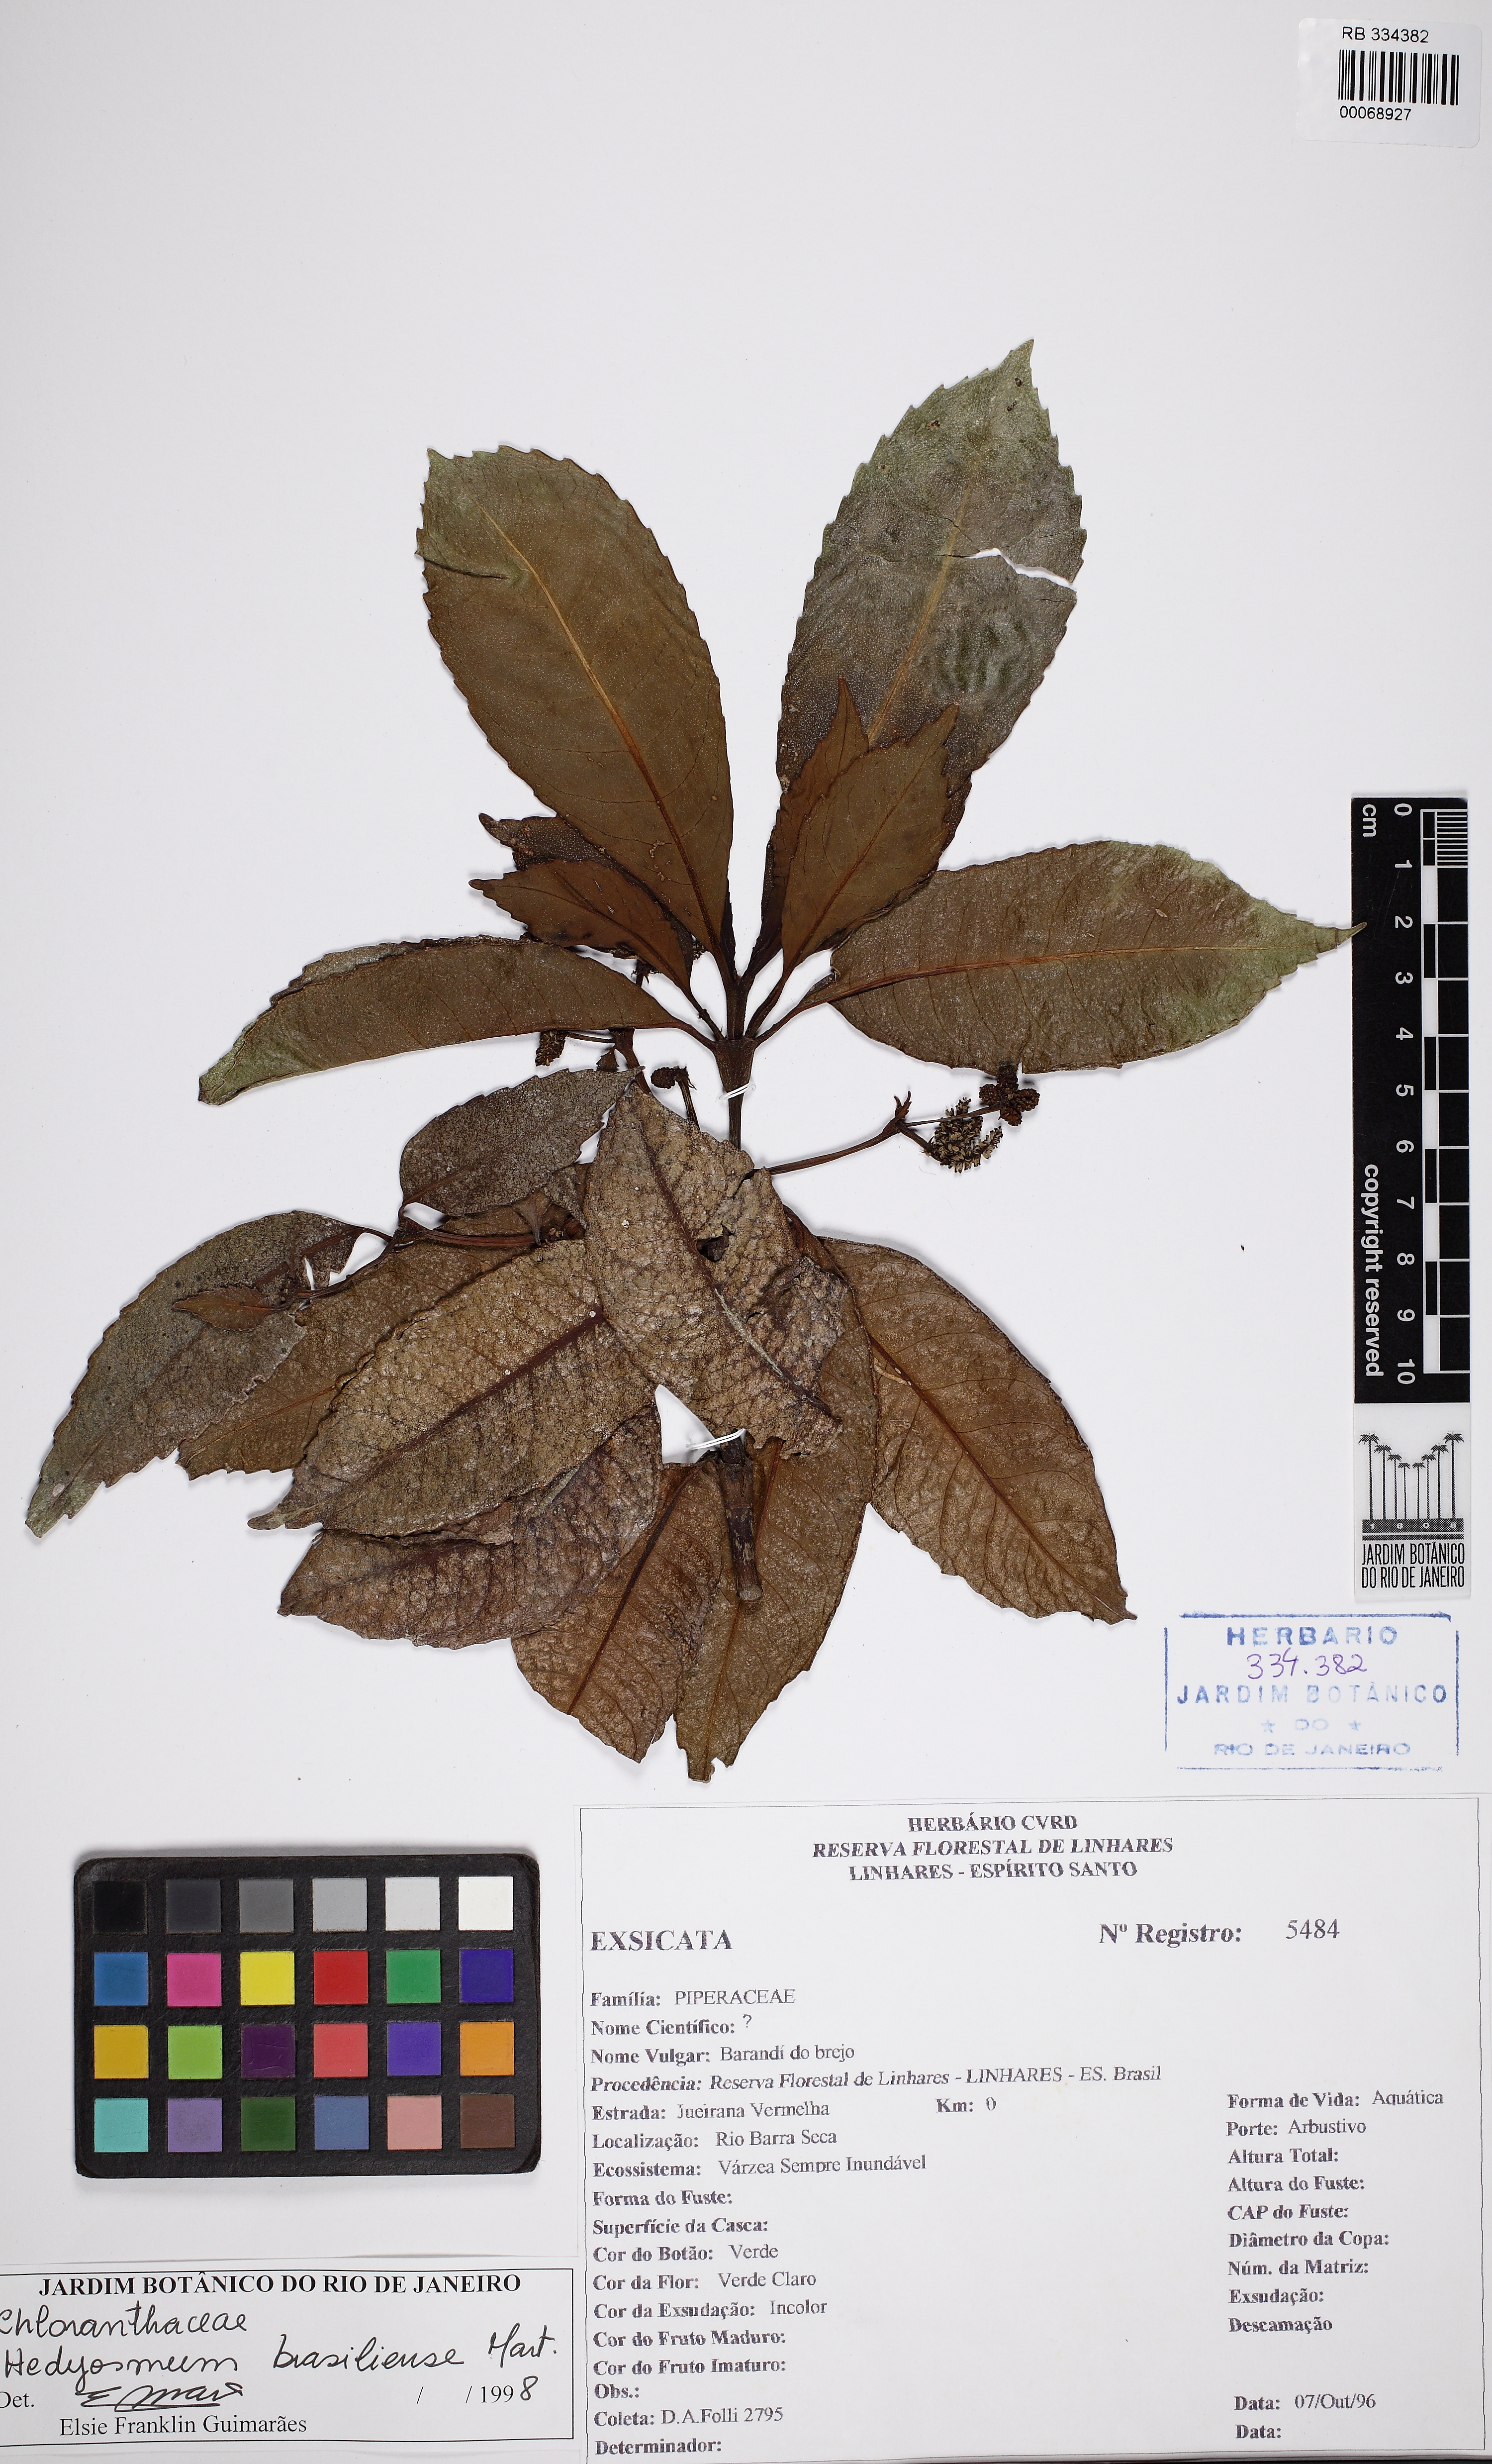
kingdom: Plantae
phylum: Tracheophyta
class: Magnoliopsida
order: Chloranthales
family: Chloranthaceae
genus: Hedyosmum
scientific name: Hedyosmum brasiliense
